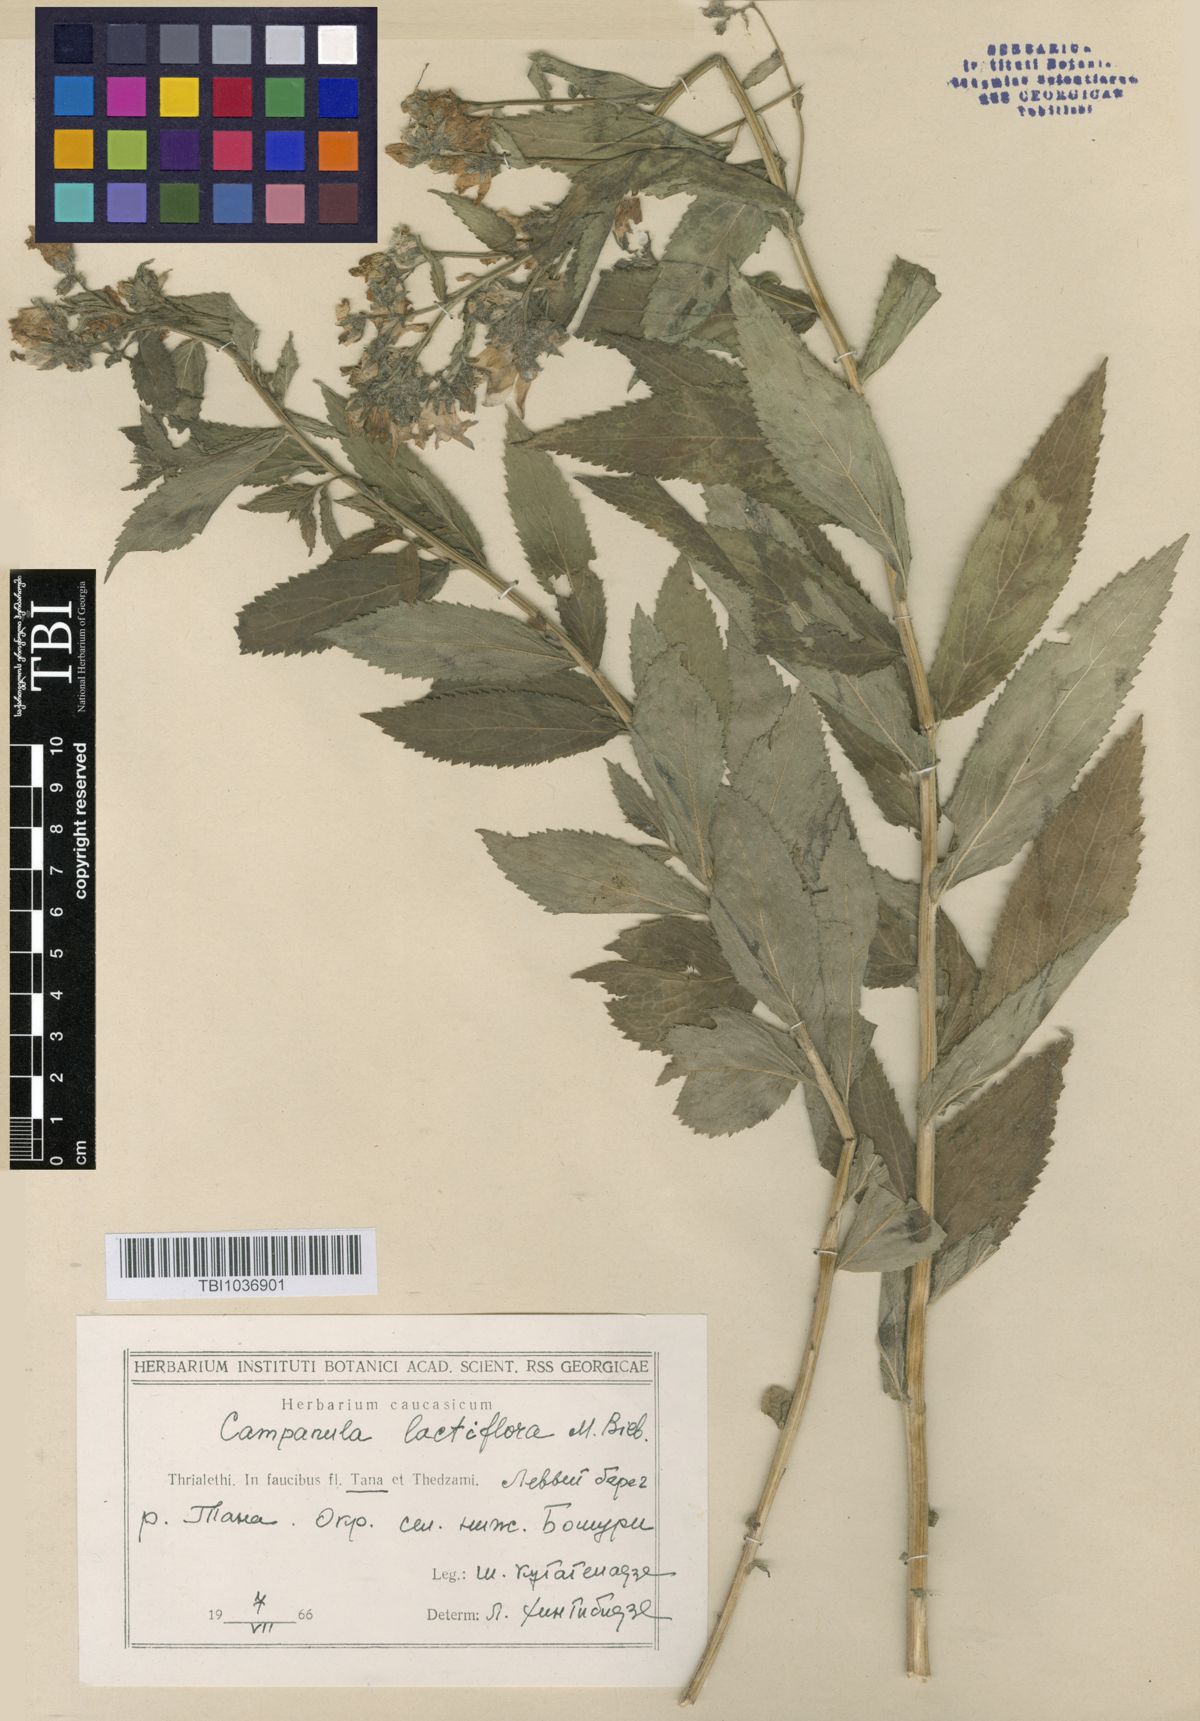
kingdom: Plantae
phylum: Tracheophyta
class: Magnoliopsida
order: Asterales
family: Campanulaceae
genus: Campanula
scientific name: Campanula lactiflora
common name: Milky bellflower
